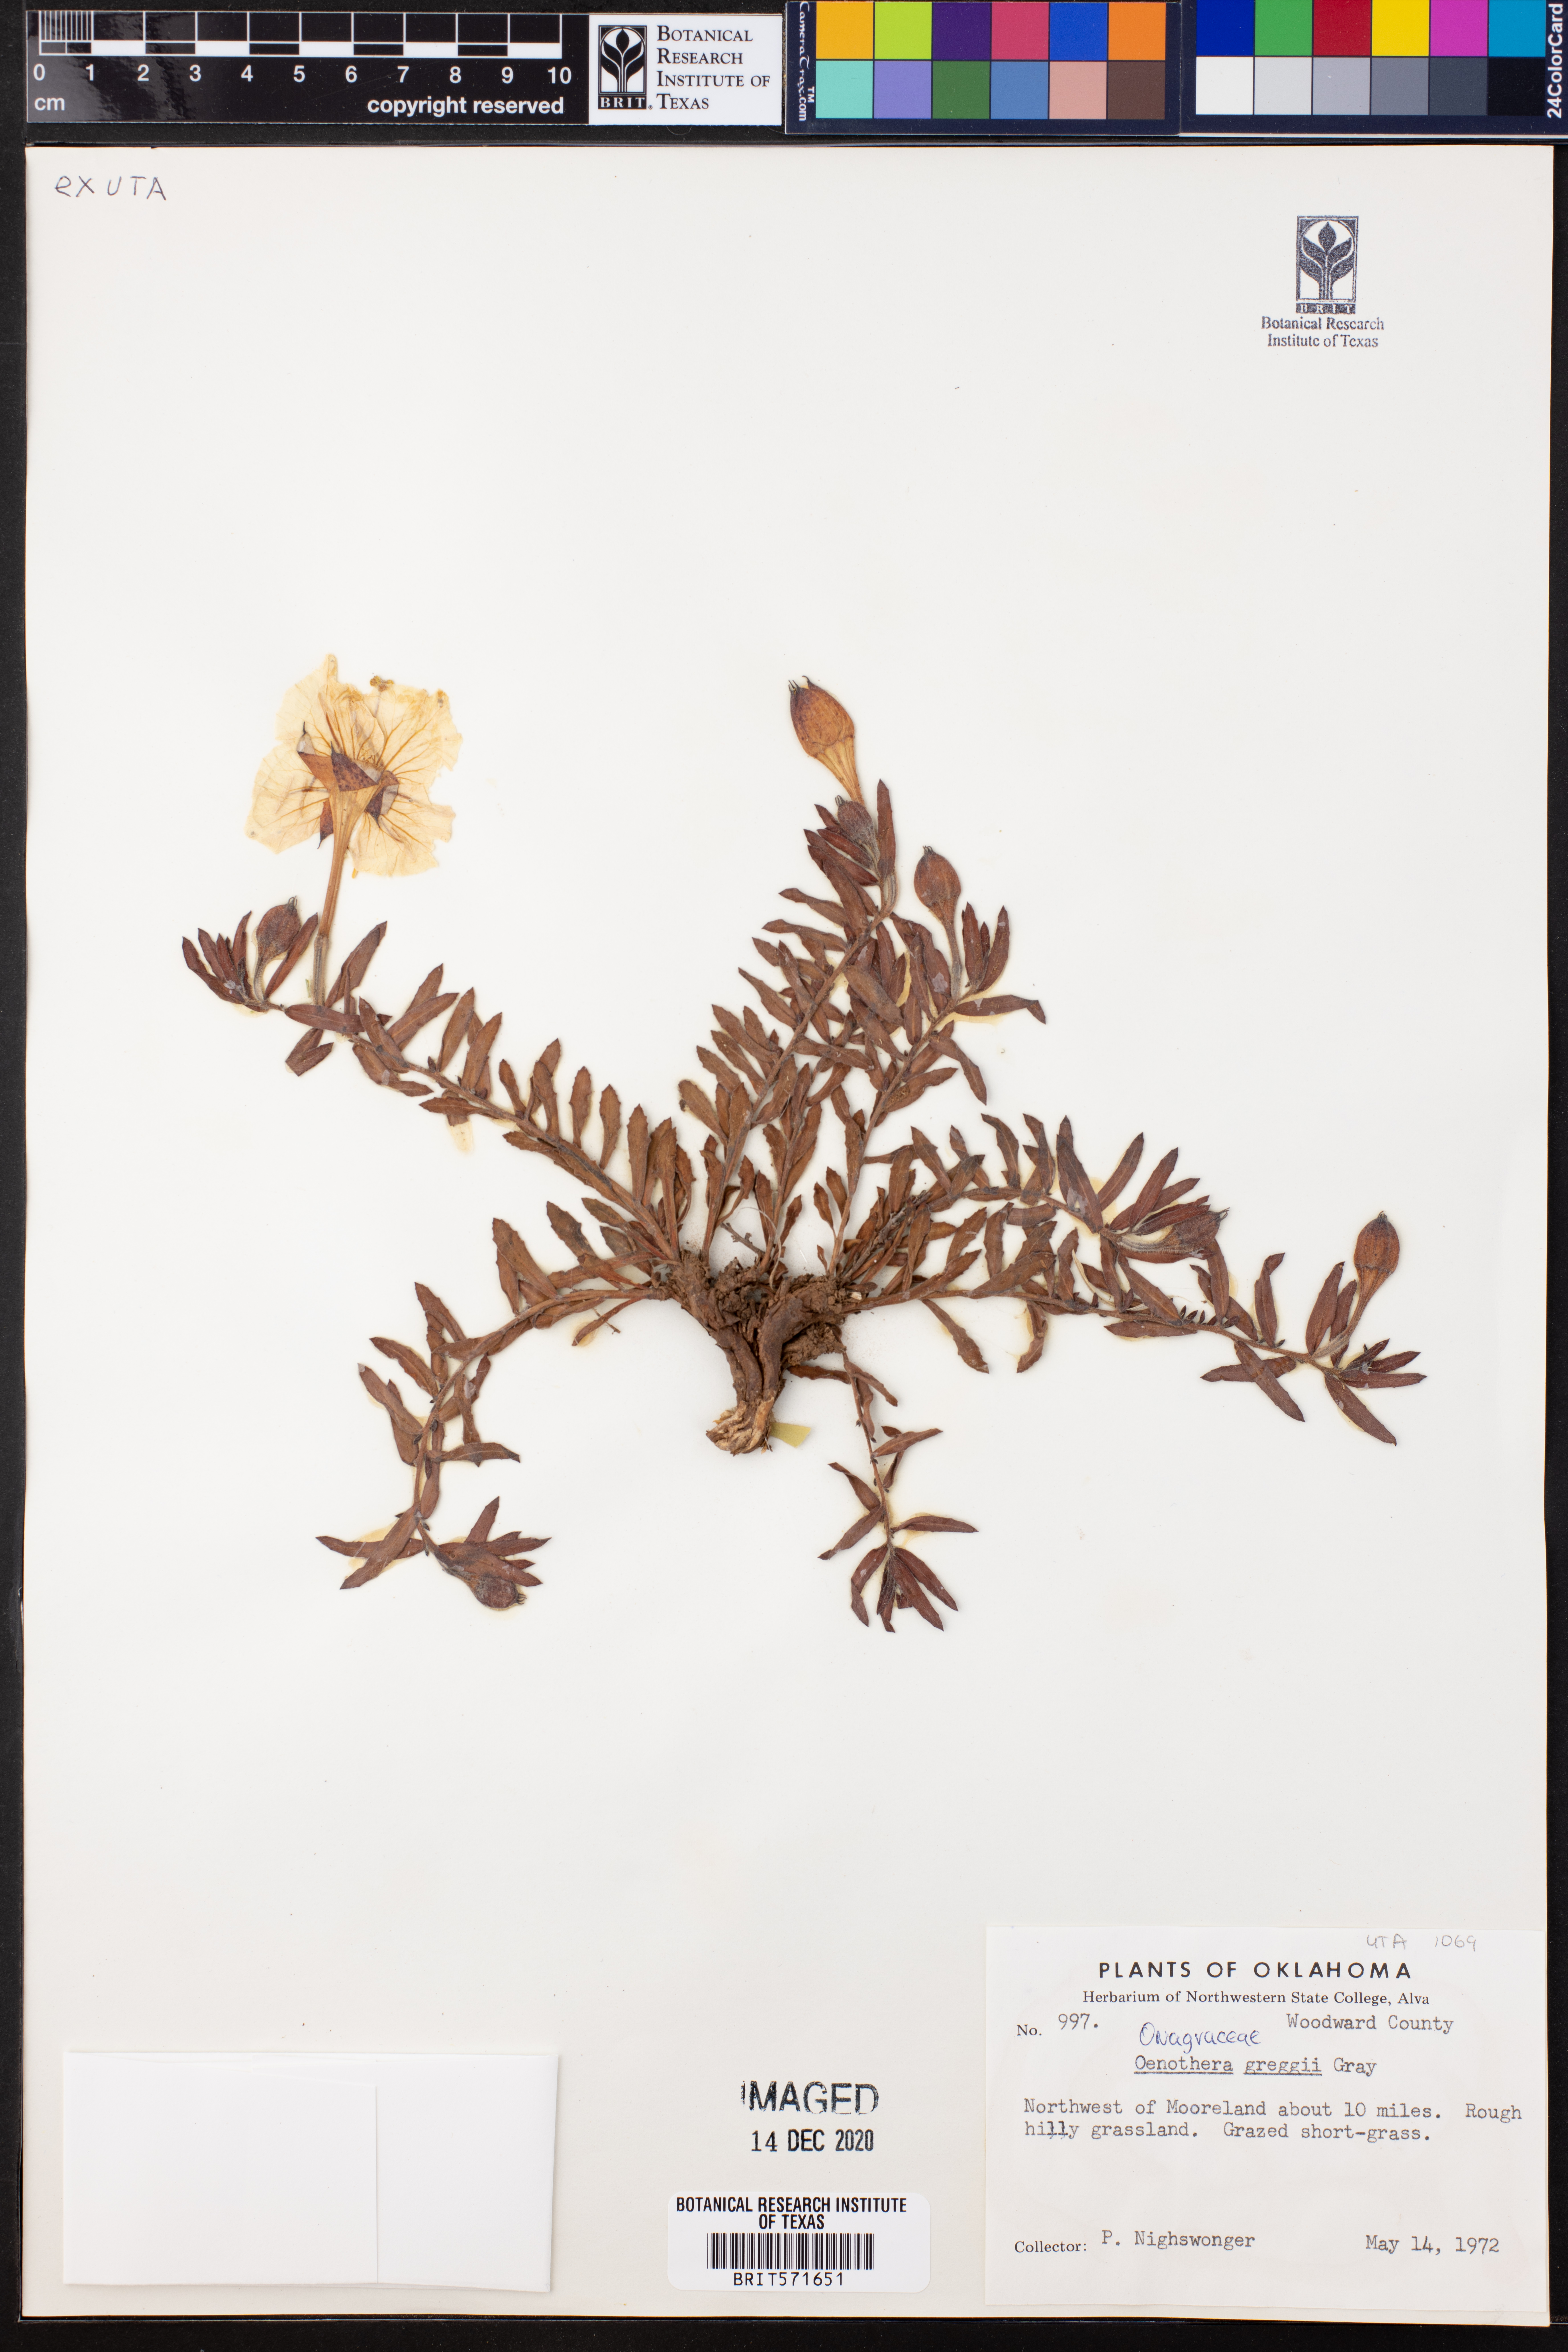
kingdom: Plantae
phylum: Tracheophyta
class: Magnoliopsida
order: Myrtales
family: Onagraceae
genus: Oenothera
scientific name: Oenothera hartwegii
